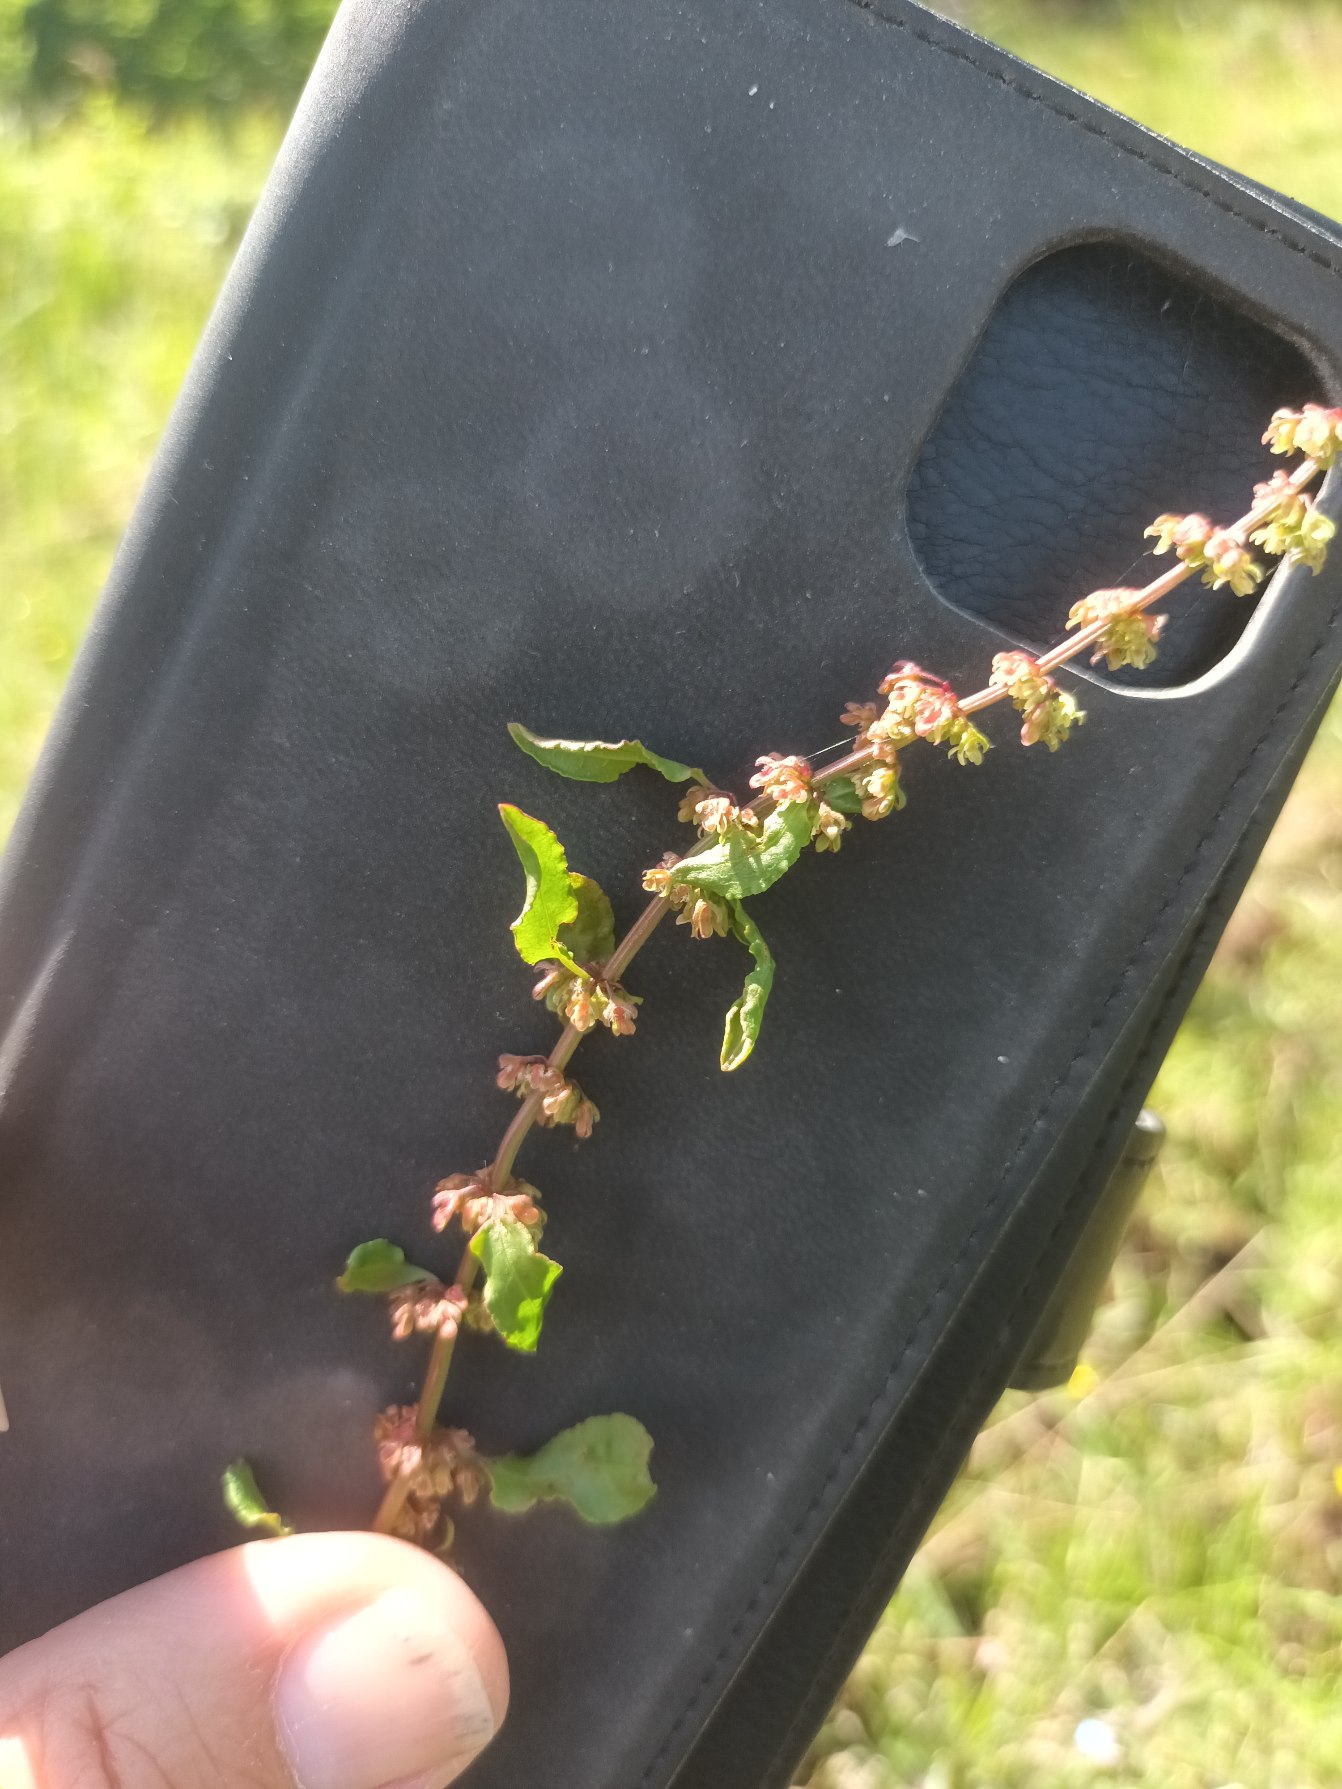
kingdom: Plantae
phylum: Tracheophyta
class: Magnoliopsida
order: Caryophyllales
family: Polygonaceae
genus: Rumex
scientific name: Rumex conglomeratus
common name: Nøgle-skræppe
